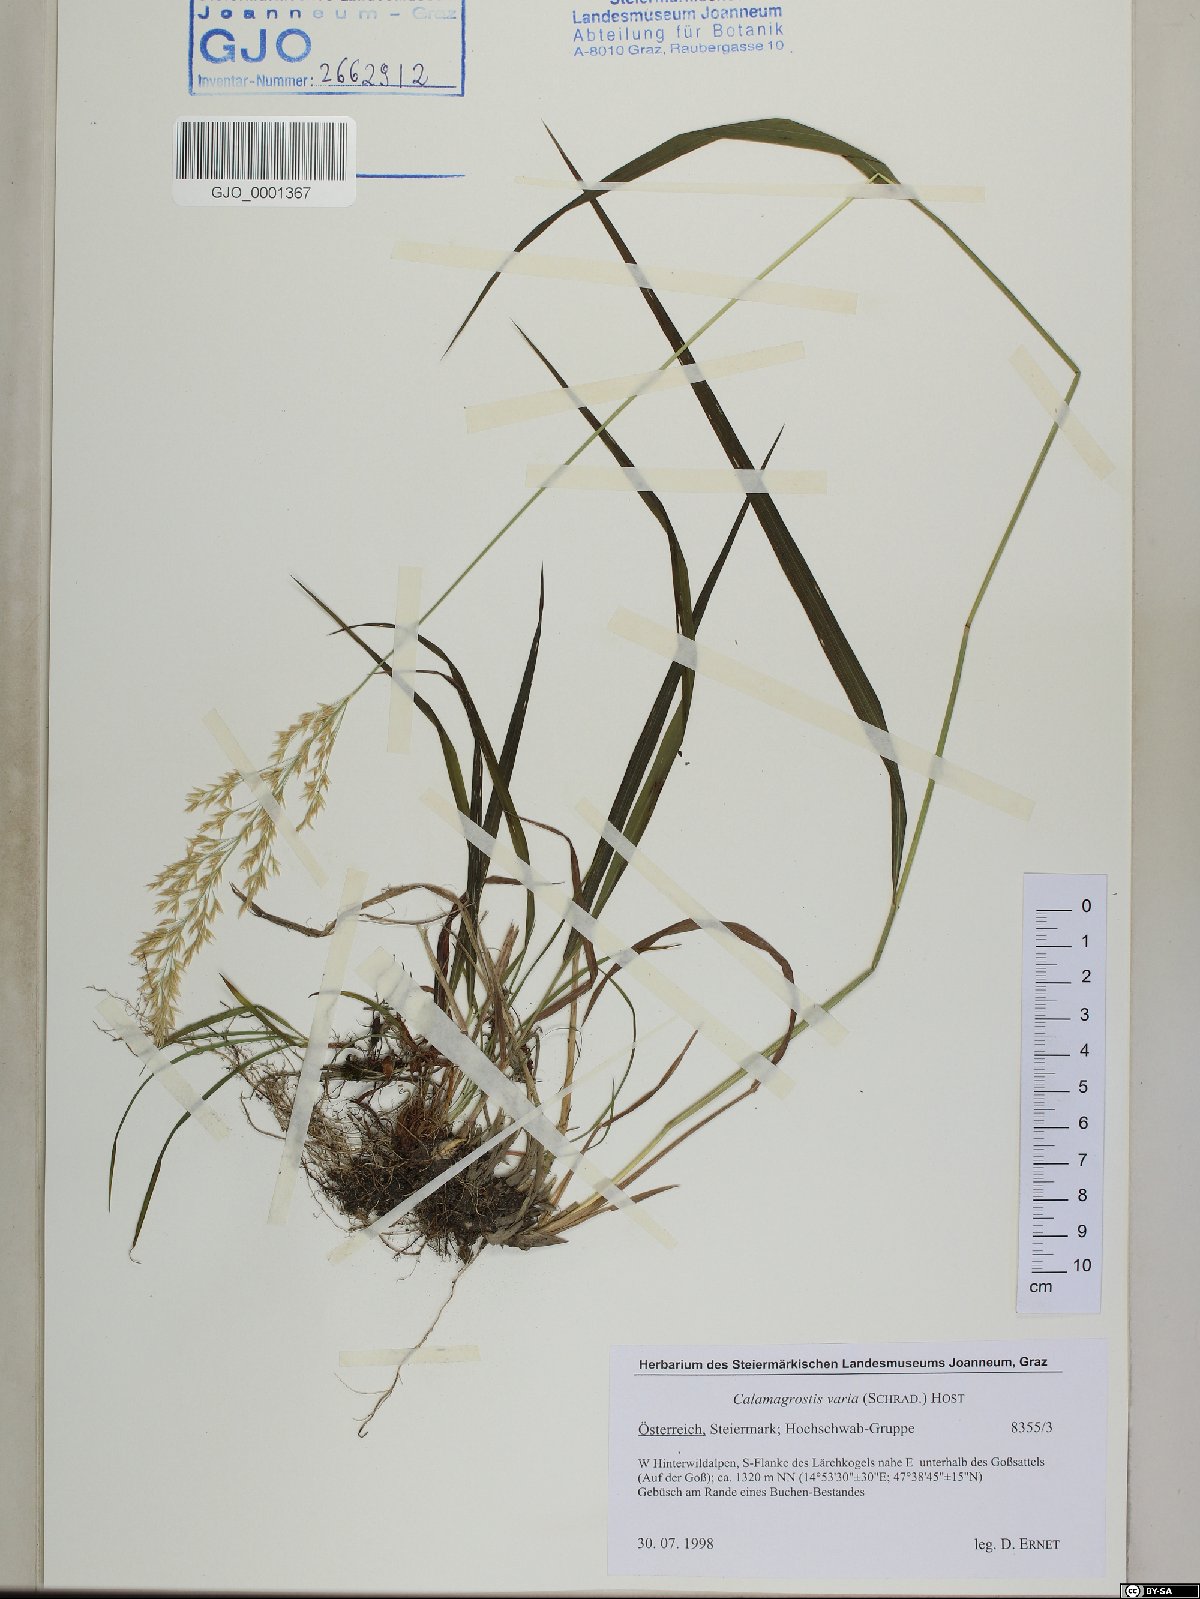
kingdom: Plantae
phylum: Tracheophyta
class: Liliopsida
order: Poales
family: Poaceae
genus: Calamagrostis
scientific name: Calamagrostis varia
